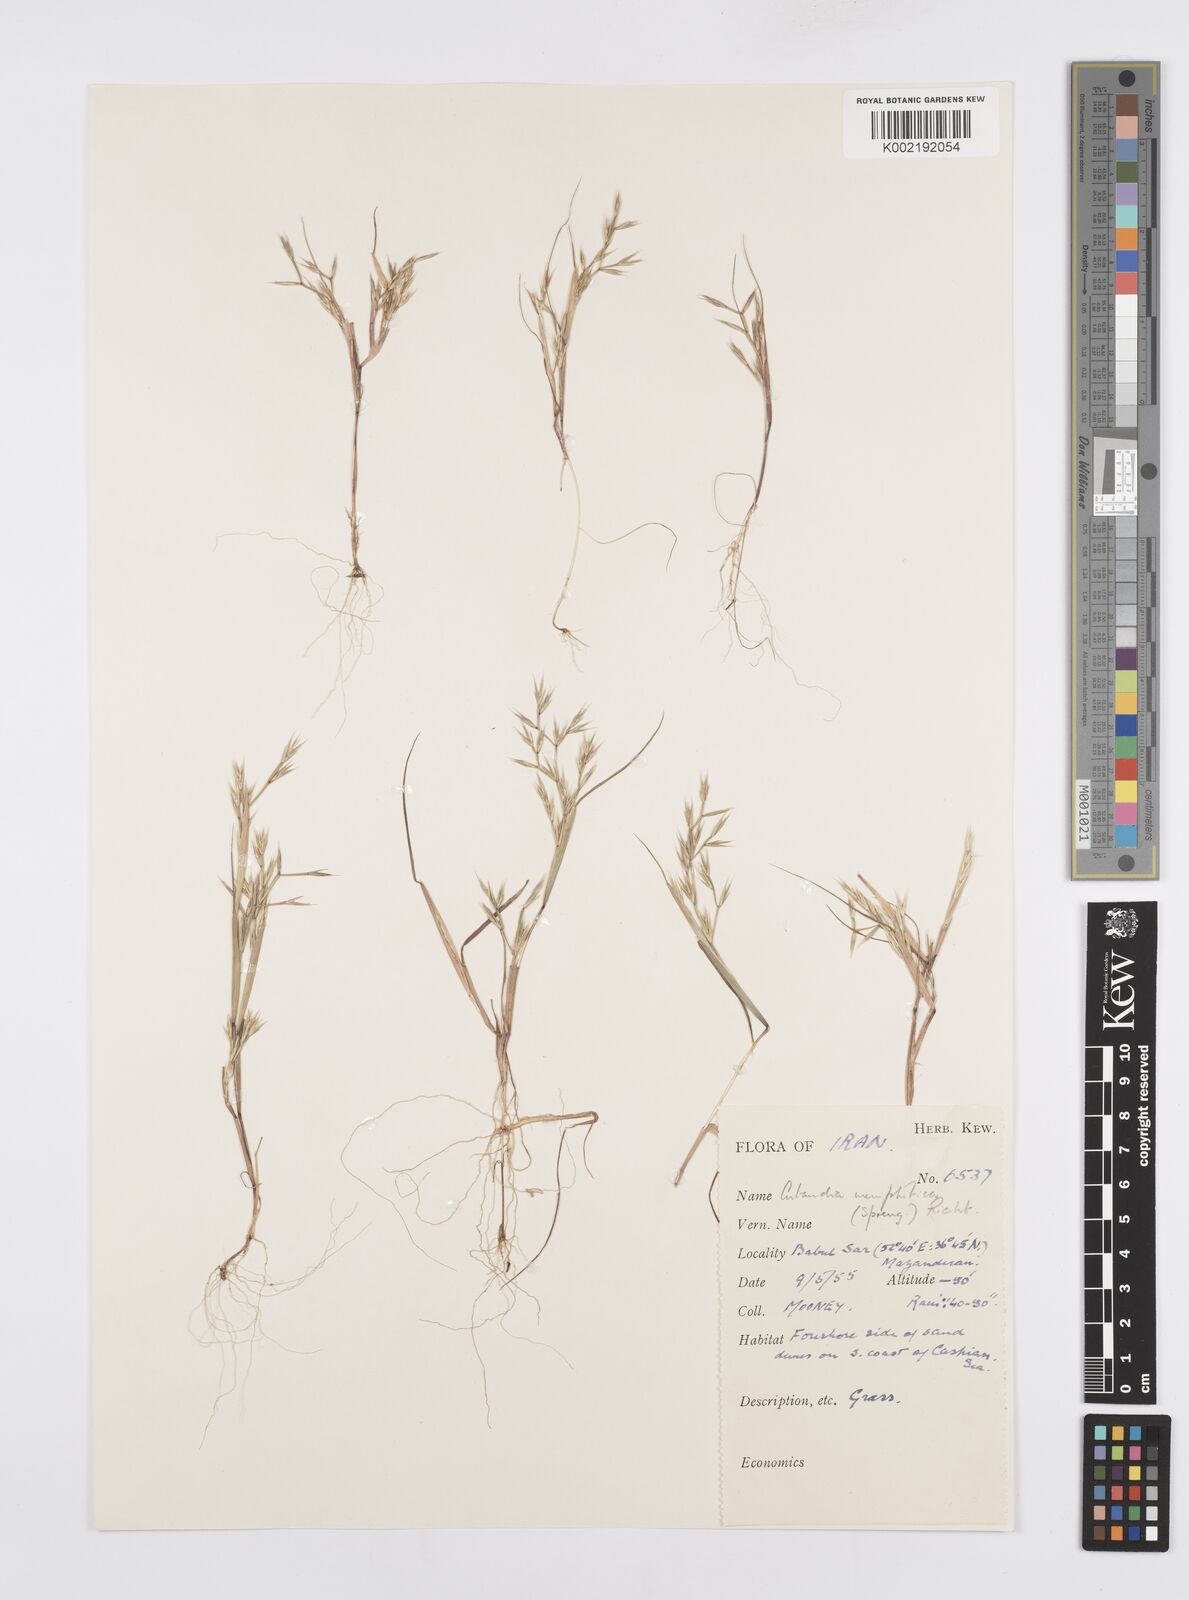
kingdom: Plantae
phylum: Tracheophyta
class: Liliopsida
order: Poales
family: Poaceae
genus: Cutandia
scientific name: Cutandia memphitica
